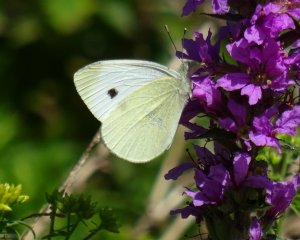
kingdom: Animalia
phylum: Arthropoda
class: Insecta
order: Lepidoptera
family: Pieridae
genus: Pieris
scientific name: Pieris rapae
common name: Cabbage White
